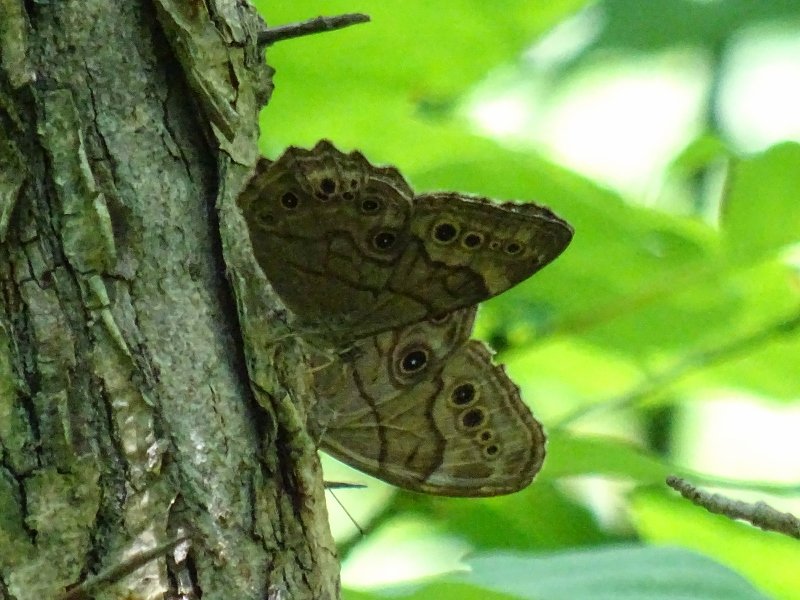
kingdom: Animalia
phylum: Arthropoda
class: Insecta
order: Lepidoptera
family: Nymphalidae
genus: Lethe
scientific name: Lethe anthedon
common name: Northern Pearly-Eye
